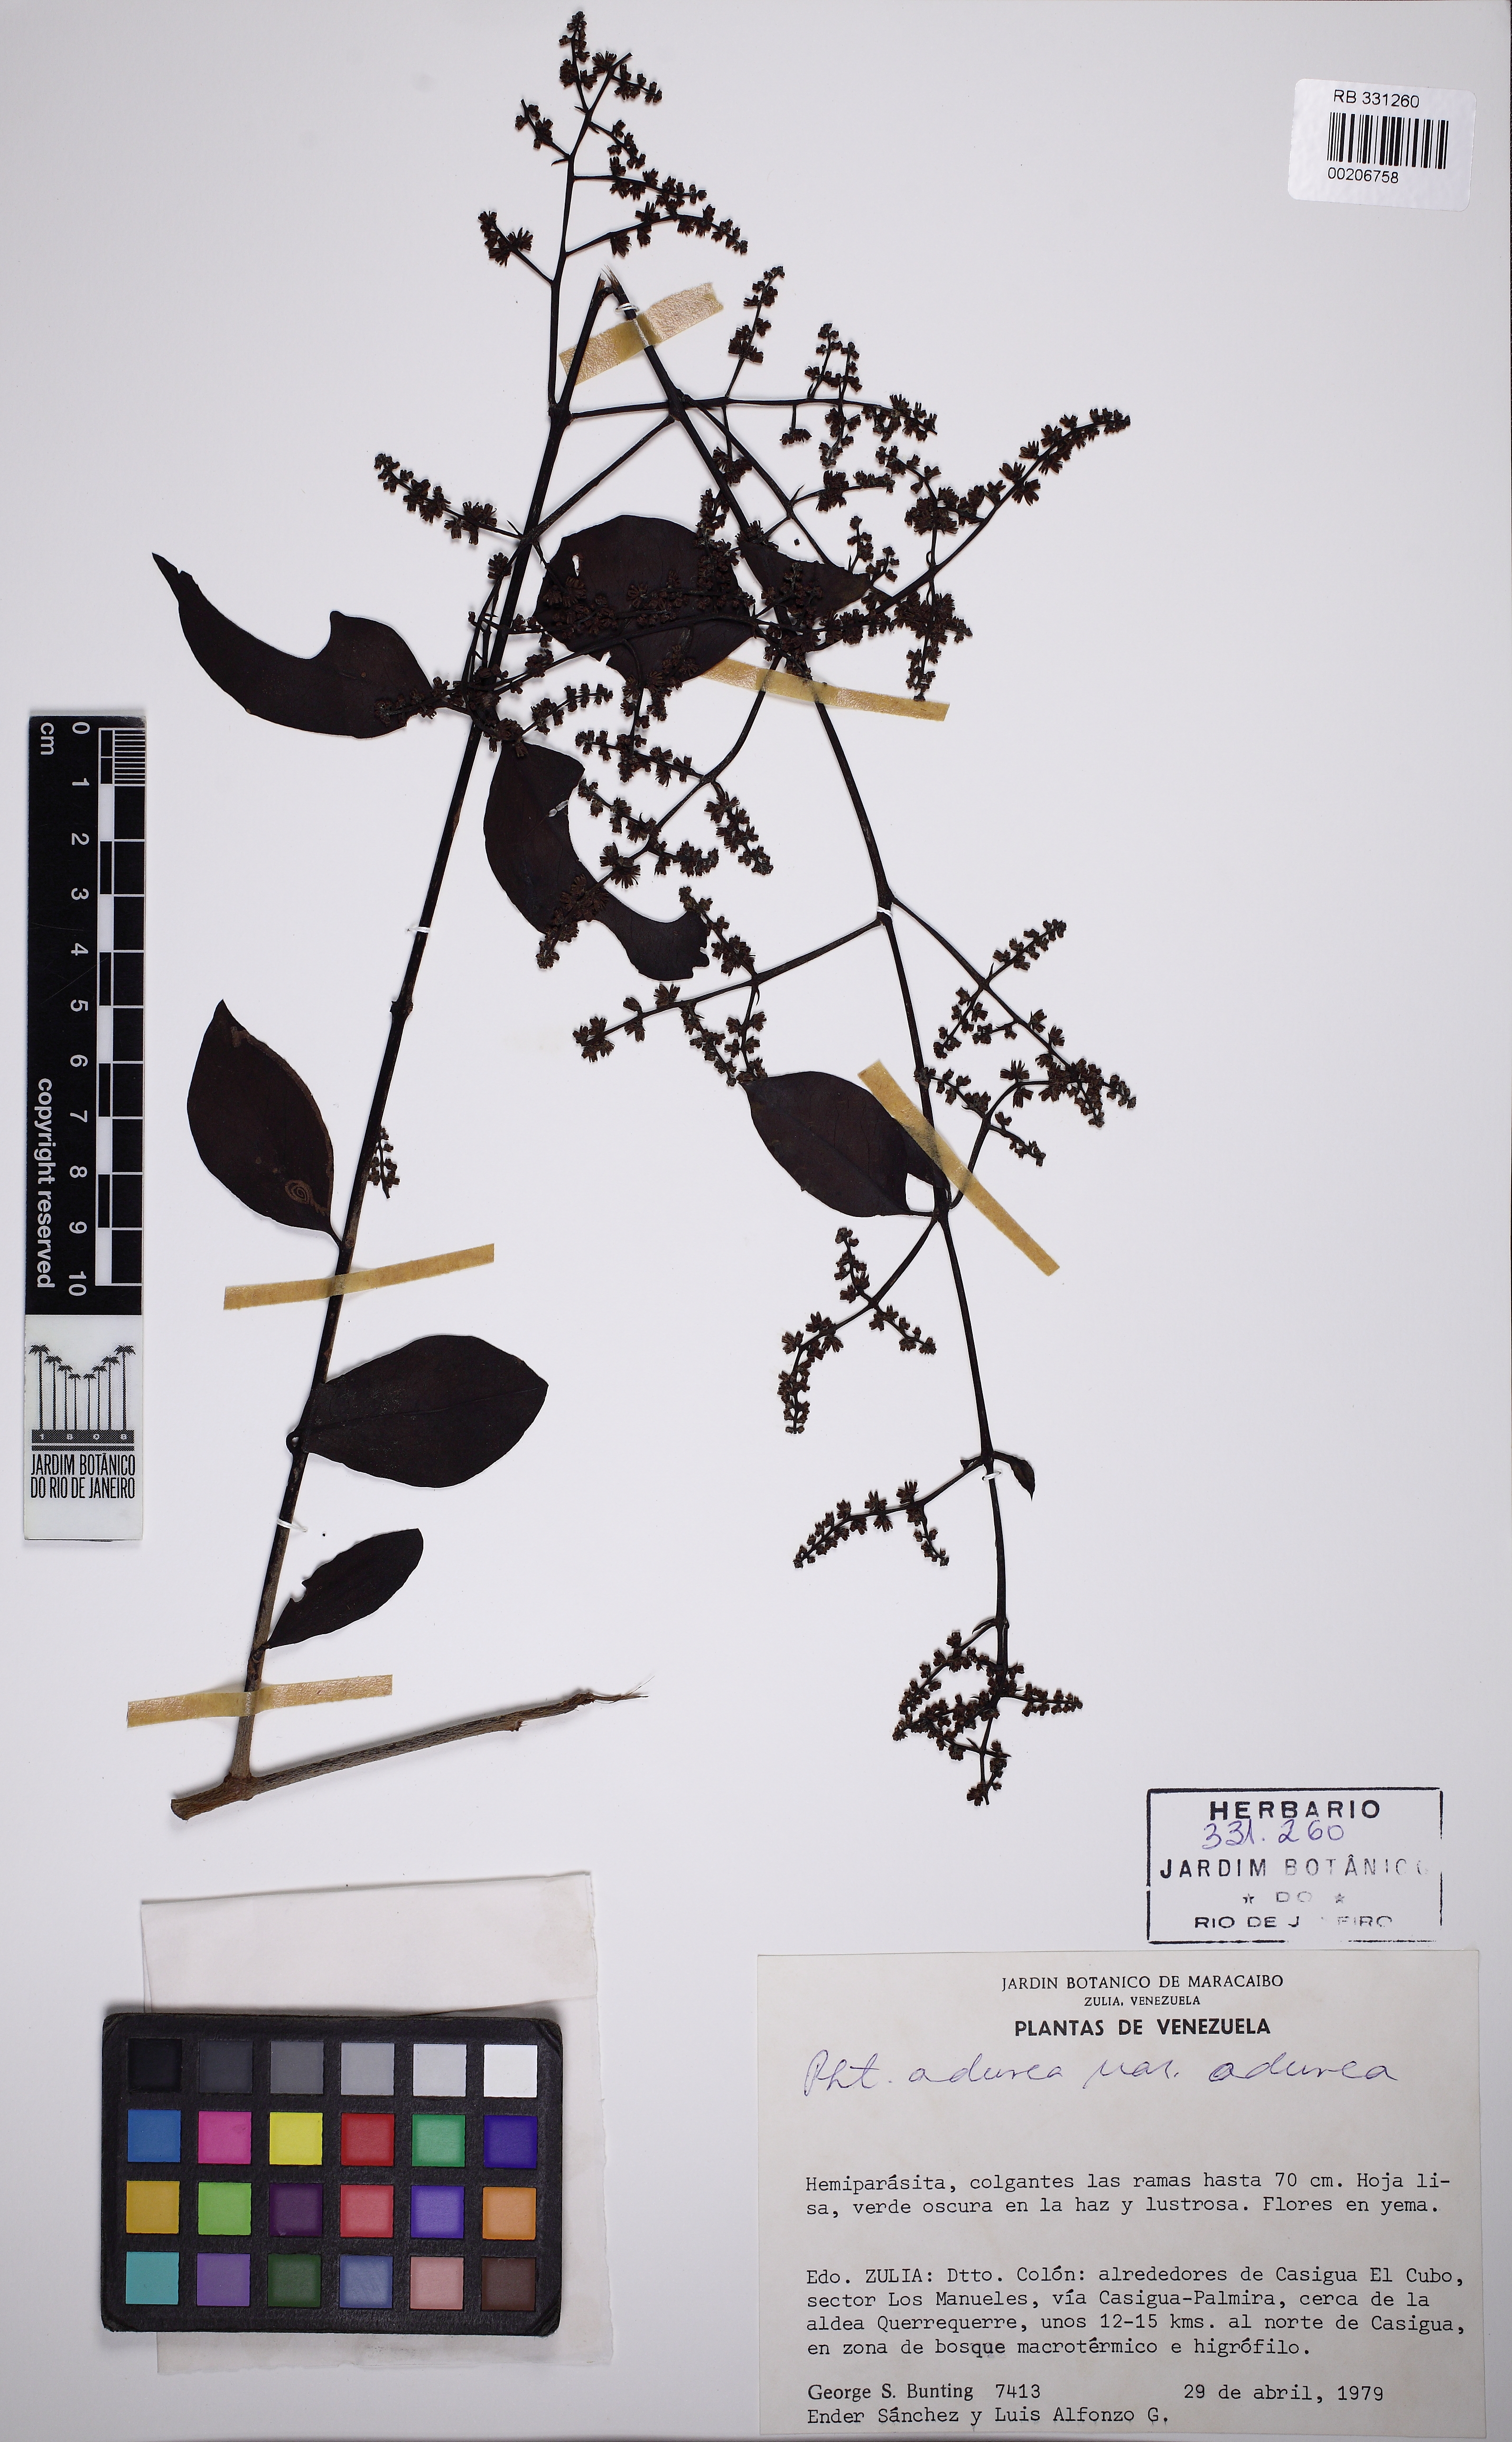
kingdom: Plantae
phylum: Tracheophyta
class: Magnoliopsida
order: Santalales
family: Loranthaceae
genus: Passovia
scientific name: Passovia pedunculata
